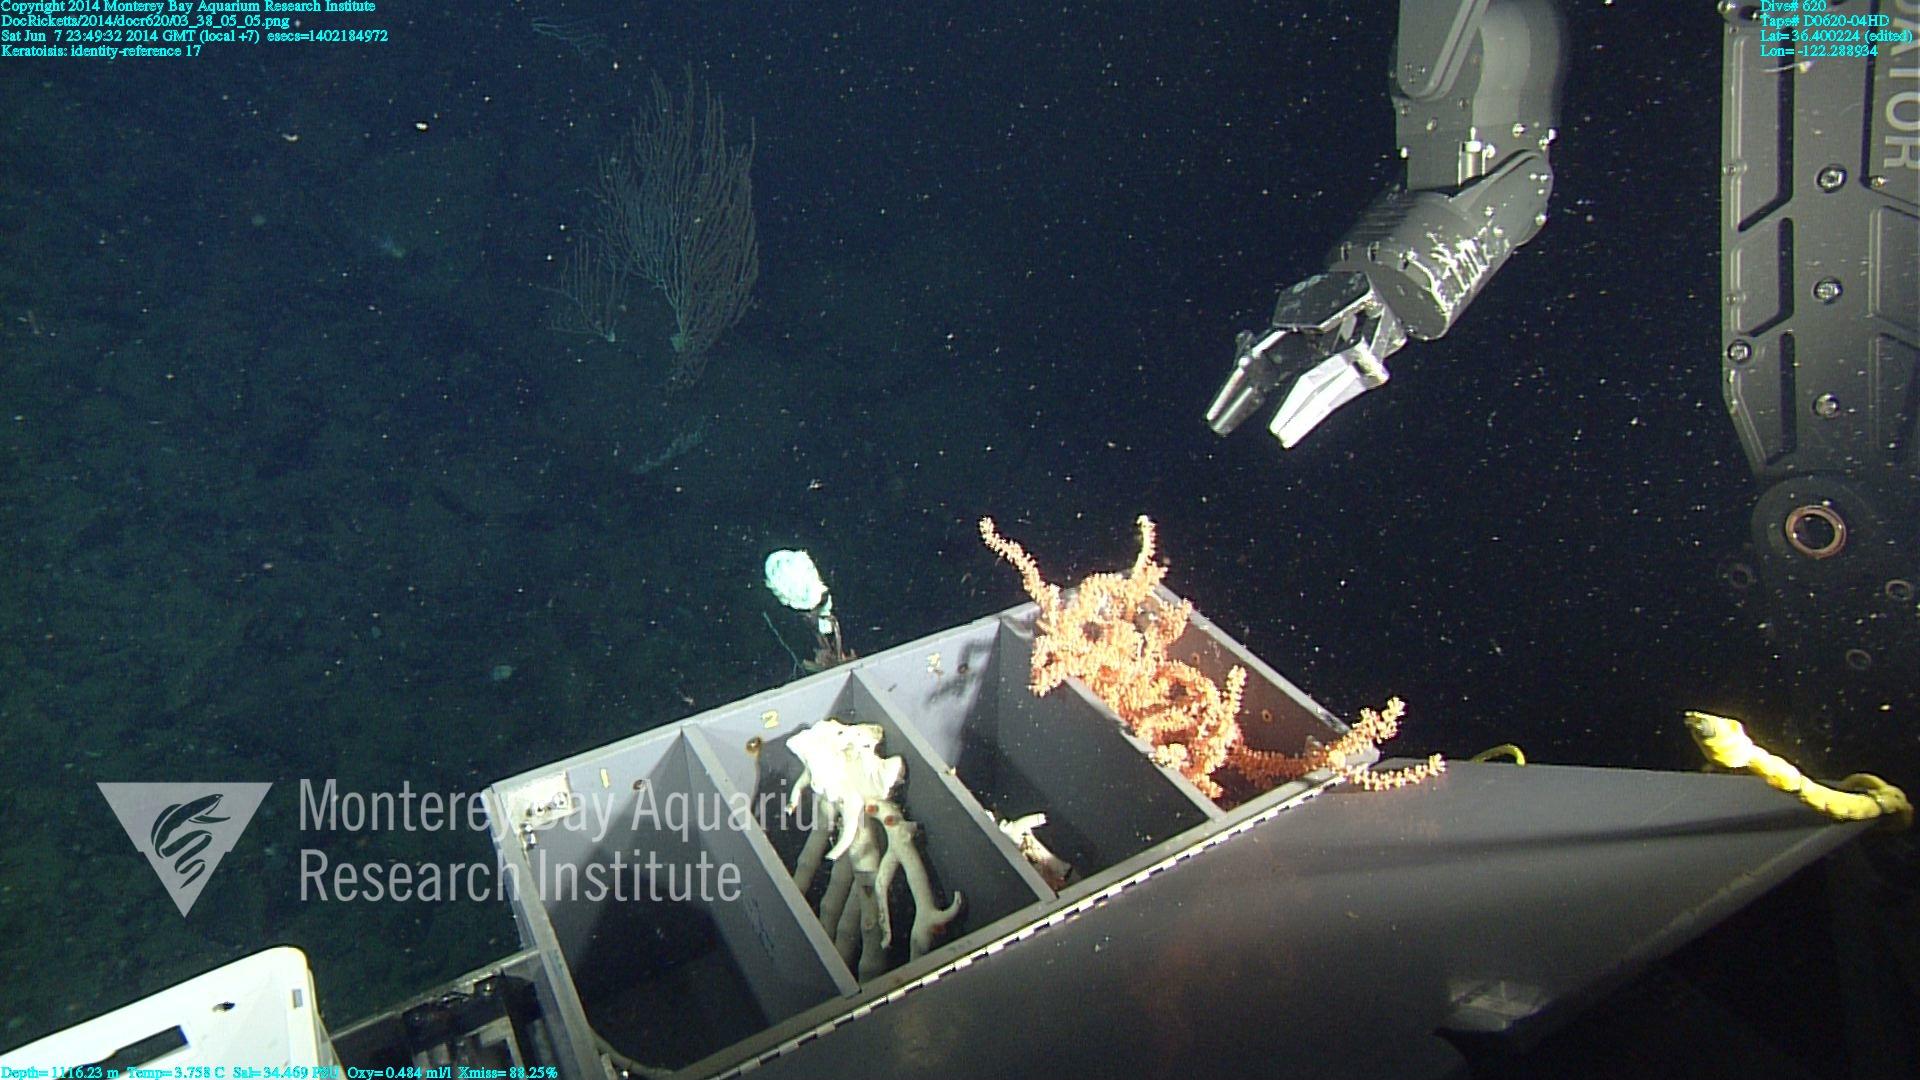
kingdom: Animalia
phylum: Cnidaria
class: Anthozoa
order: Scleralcyonacea
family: Keratoisididae
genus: Keratoisis
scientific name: Keratoisis
